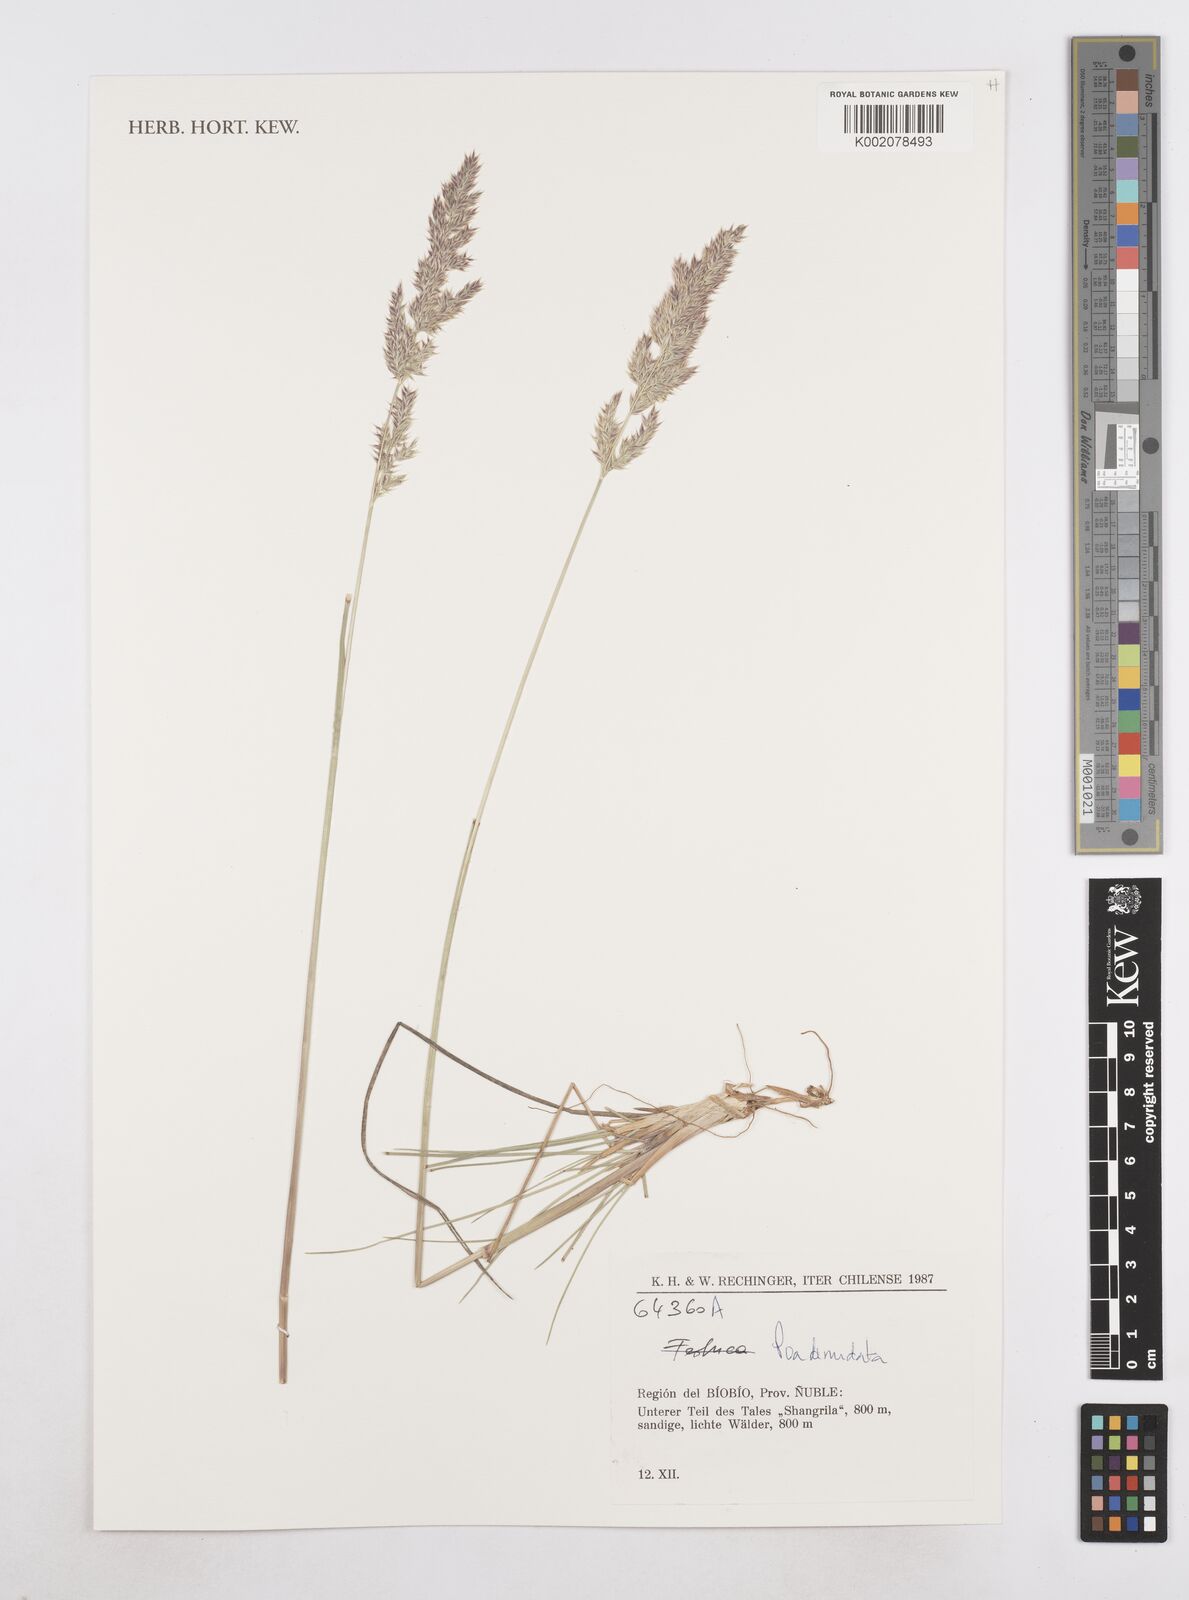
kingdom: Plantae
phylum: Tracheophyta
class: Liliopsida
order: Poales
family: Poaceae
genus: Poa
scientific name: Poa denudata
